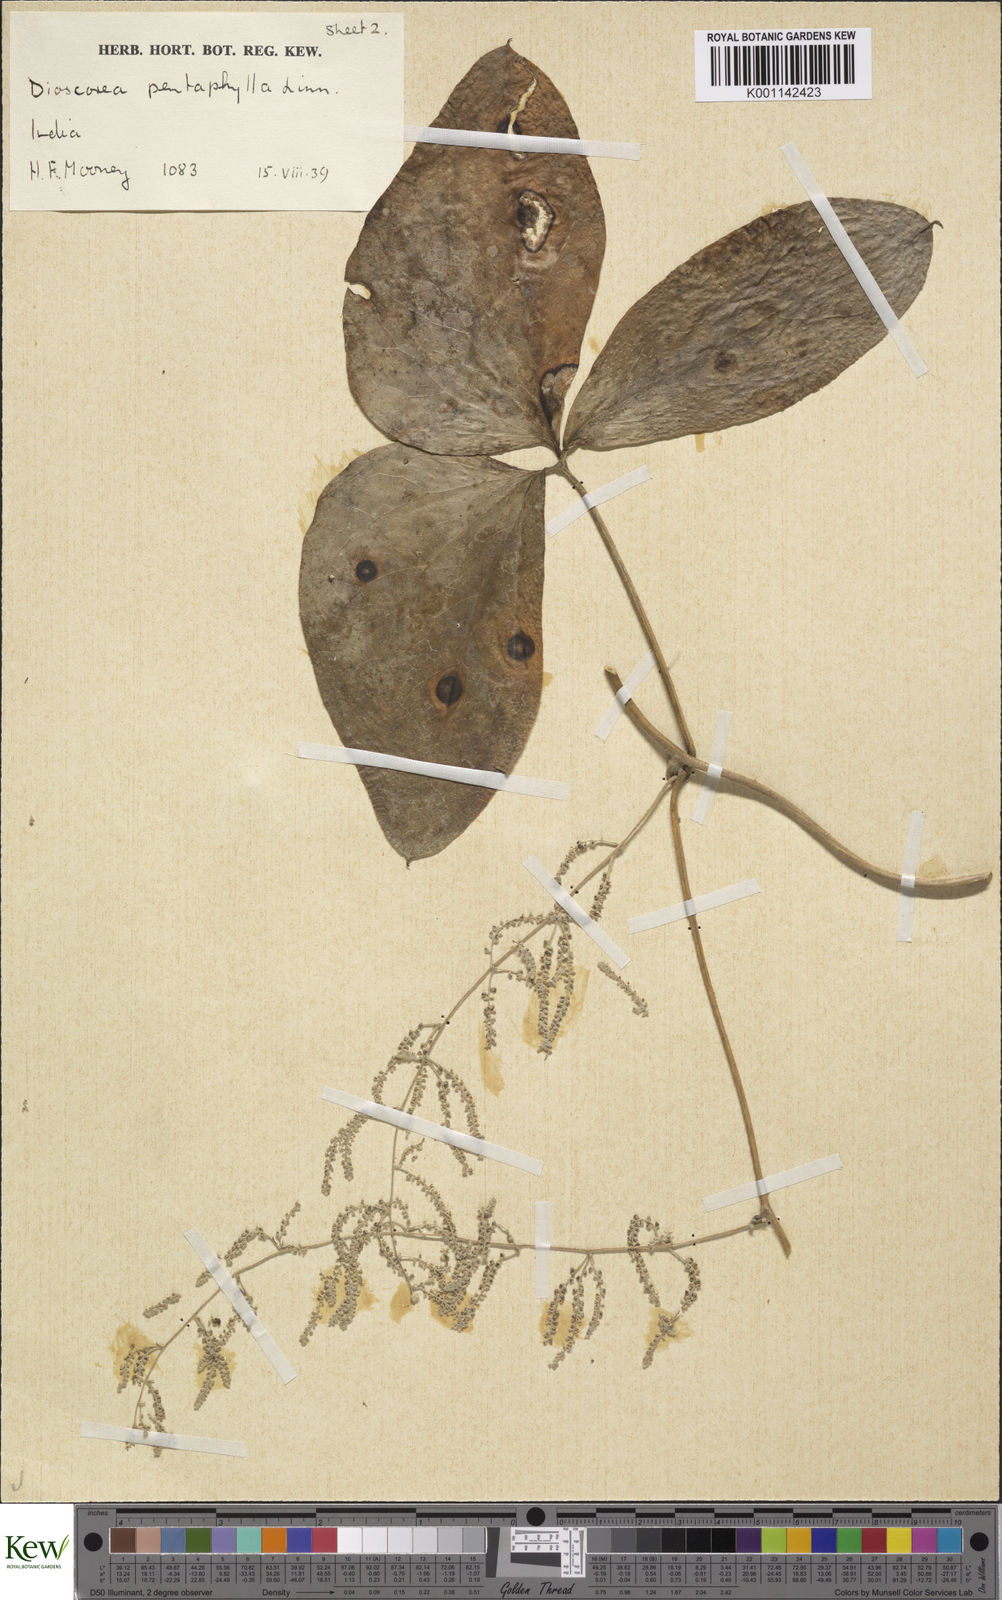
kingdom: Plantae
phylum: Tracheophyta
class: Liliopsida
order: Dioscoreales
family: Dioscoreaceae
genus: Dioscorea
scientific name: Dioscorea pentaphylla
